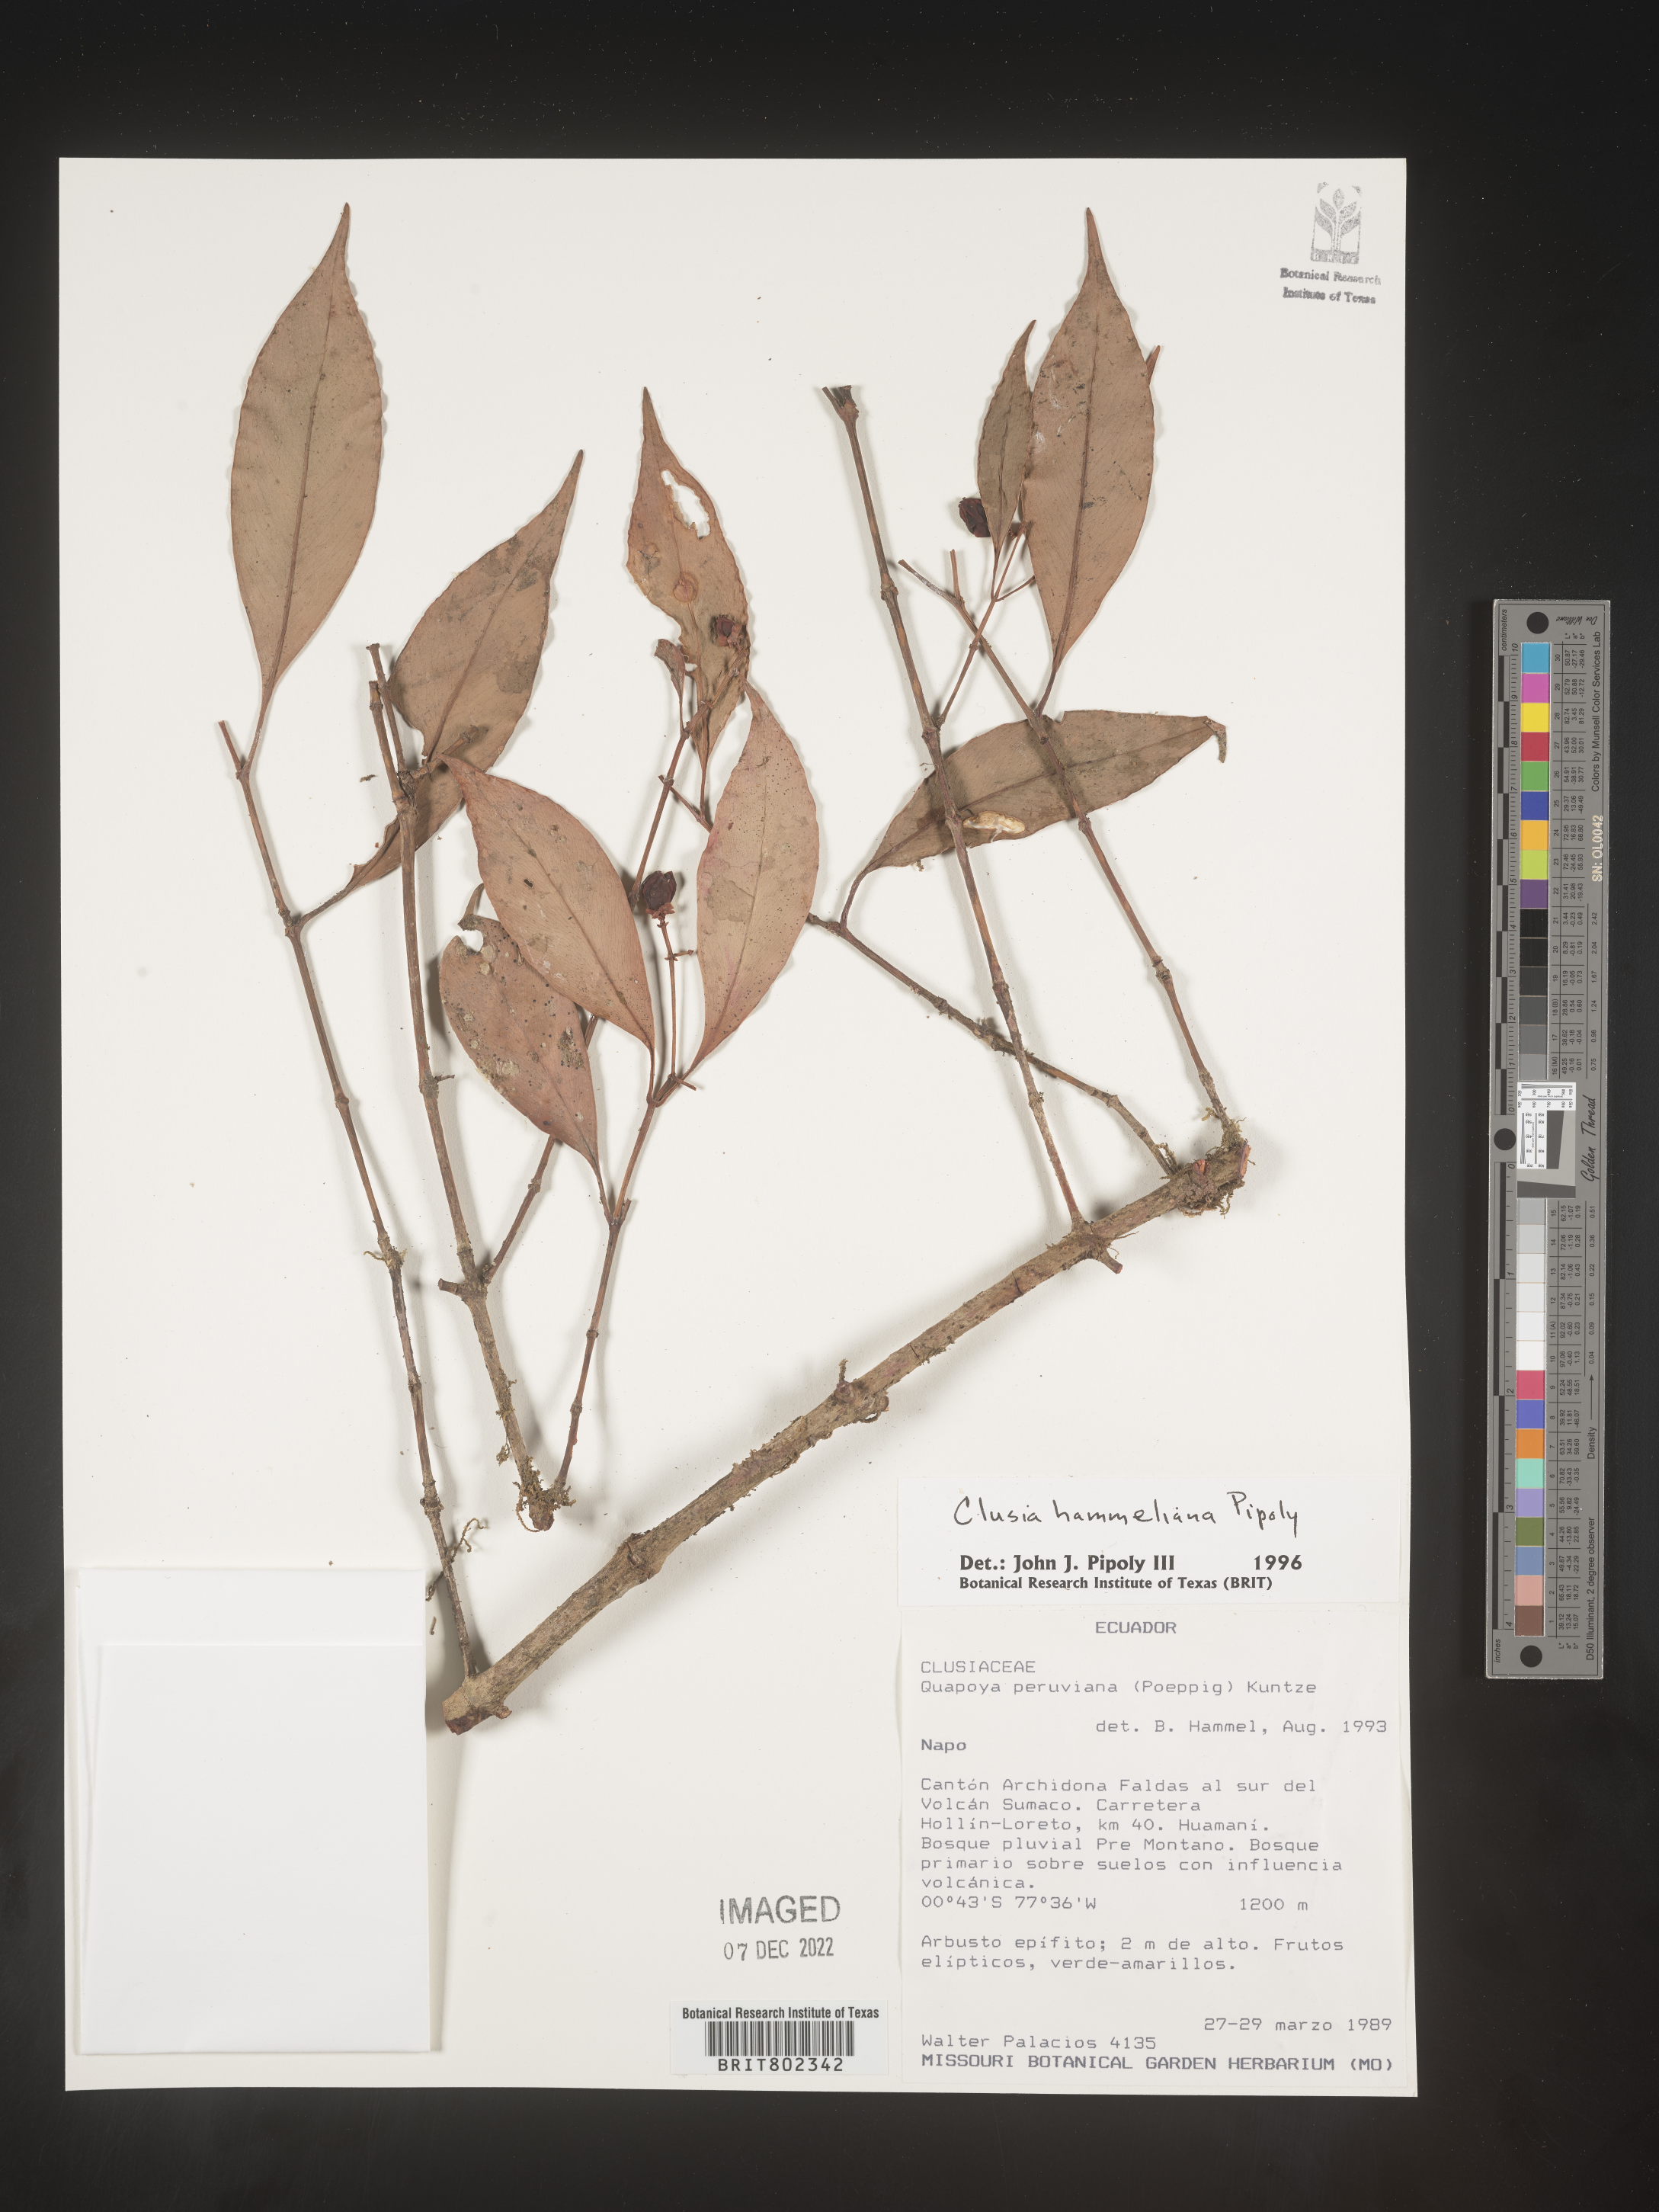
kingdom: Plantae
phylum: Tracheophyta
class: Magnoliopsida
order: Malpighiales
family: Clusiaceae
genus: Clusia
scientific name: Clusia hammeliana
